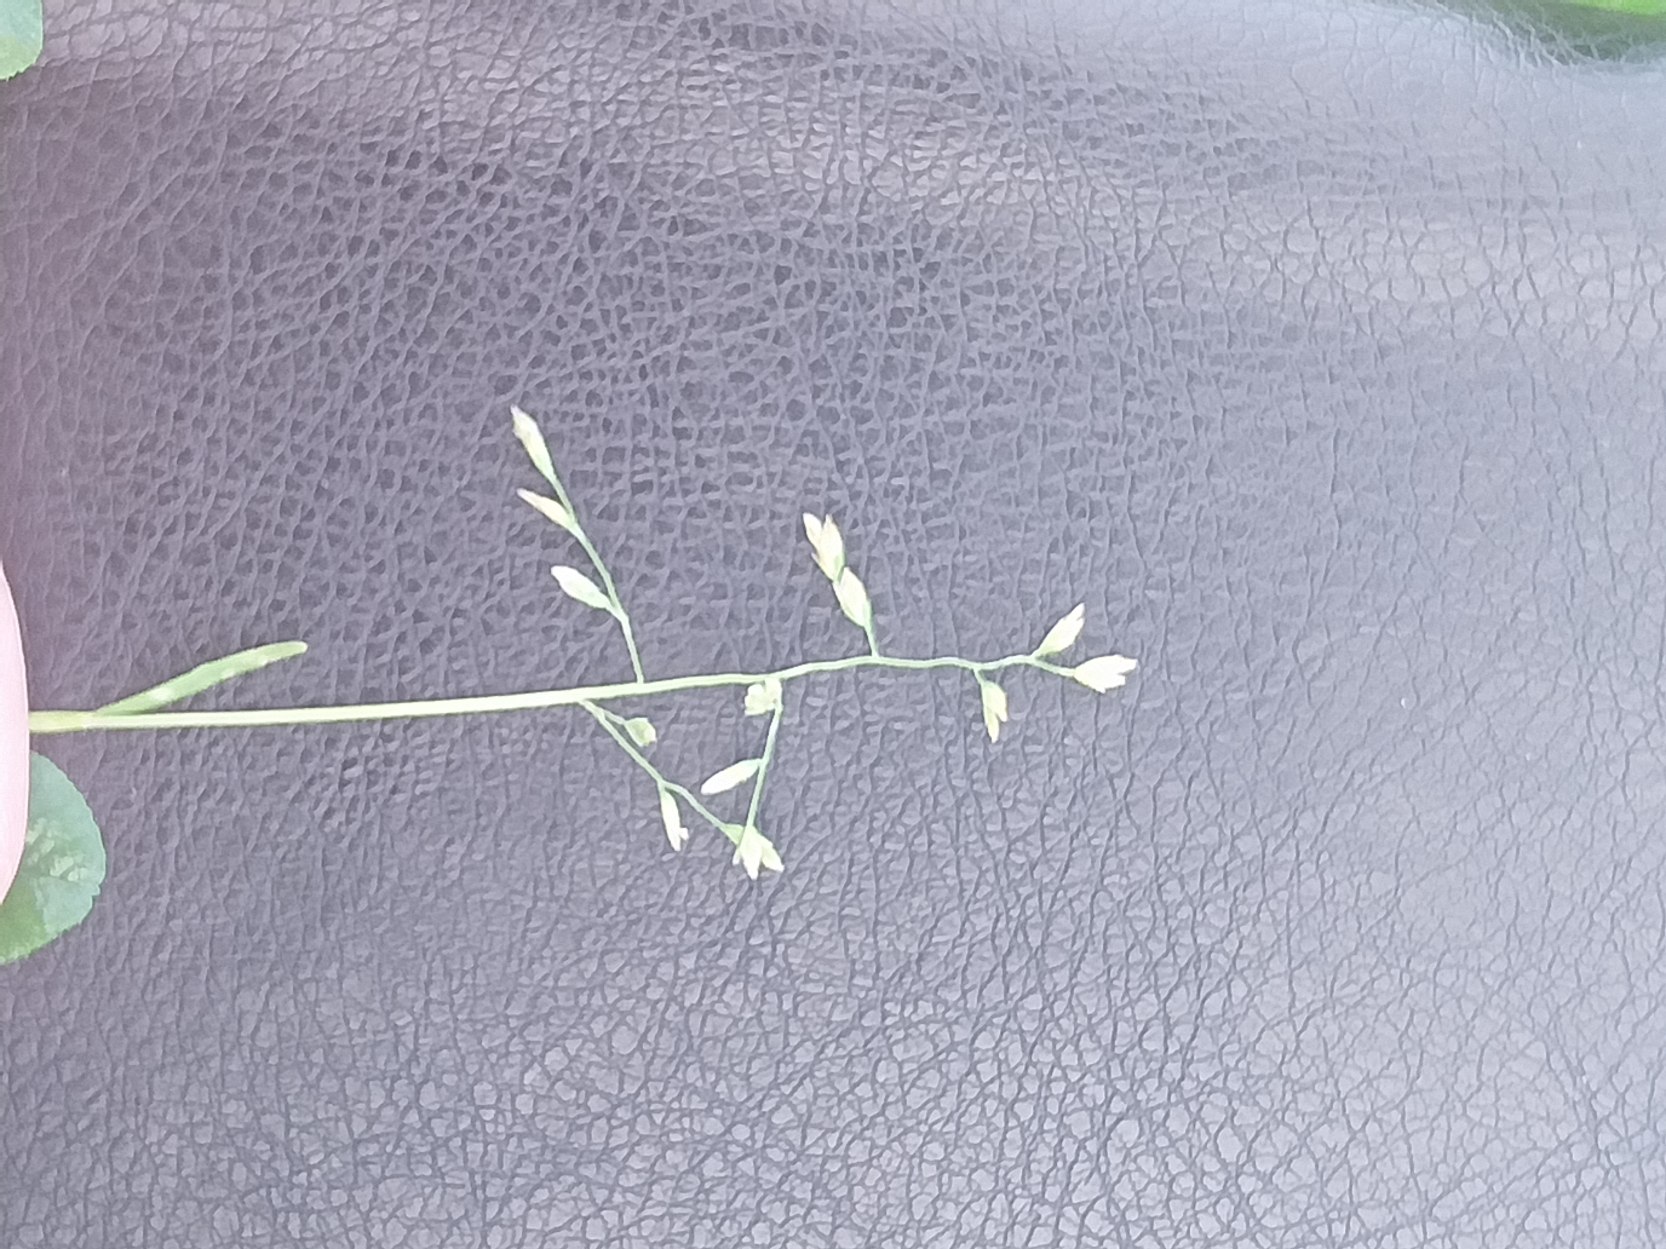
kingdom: Plantae
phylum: Tracheophyta
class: Liliopsida
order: Poales
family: Poaceae
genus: Poa
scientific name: Poa annua
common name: Enårig rapgræs
